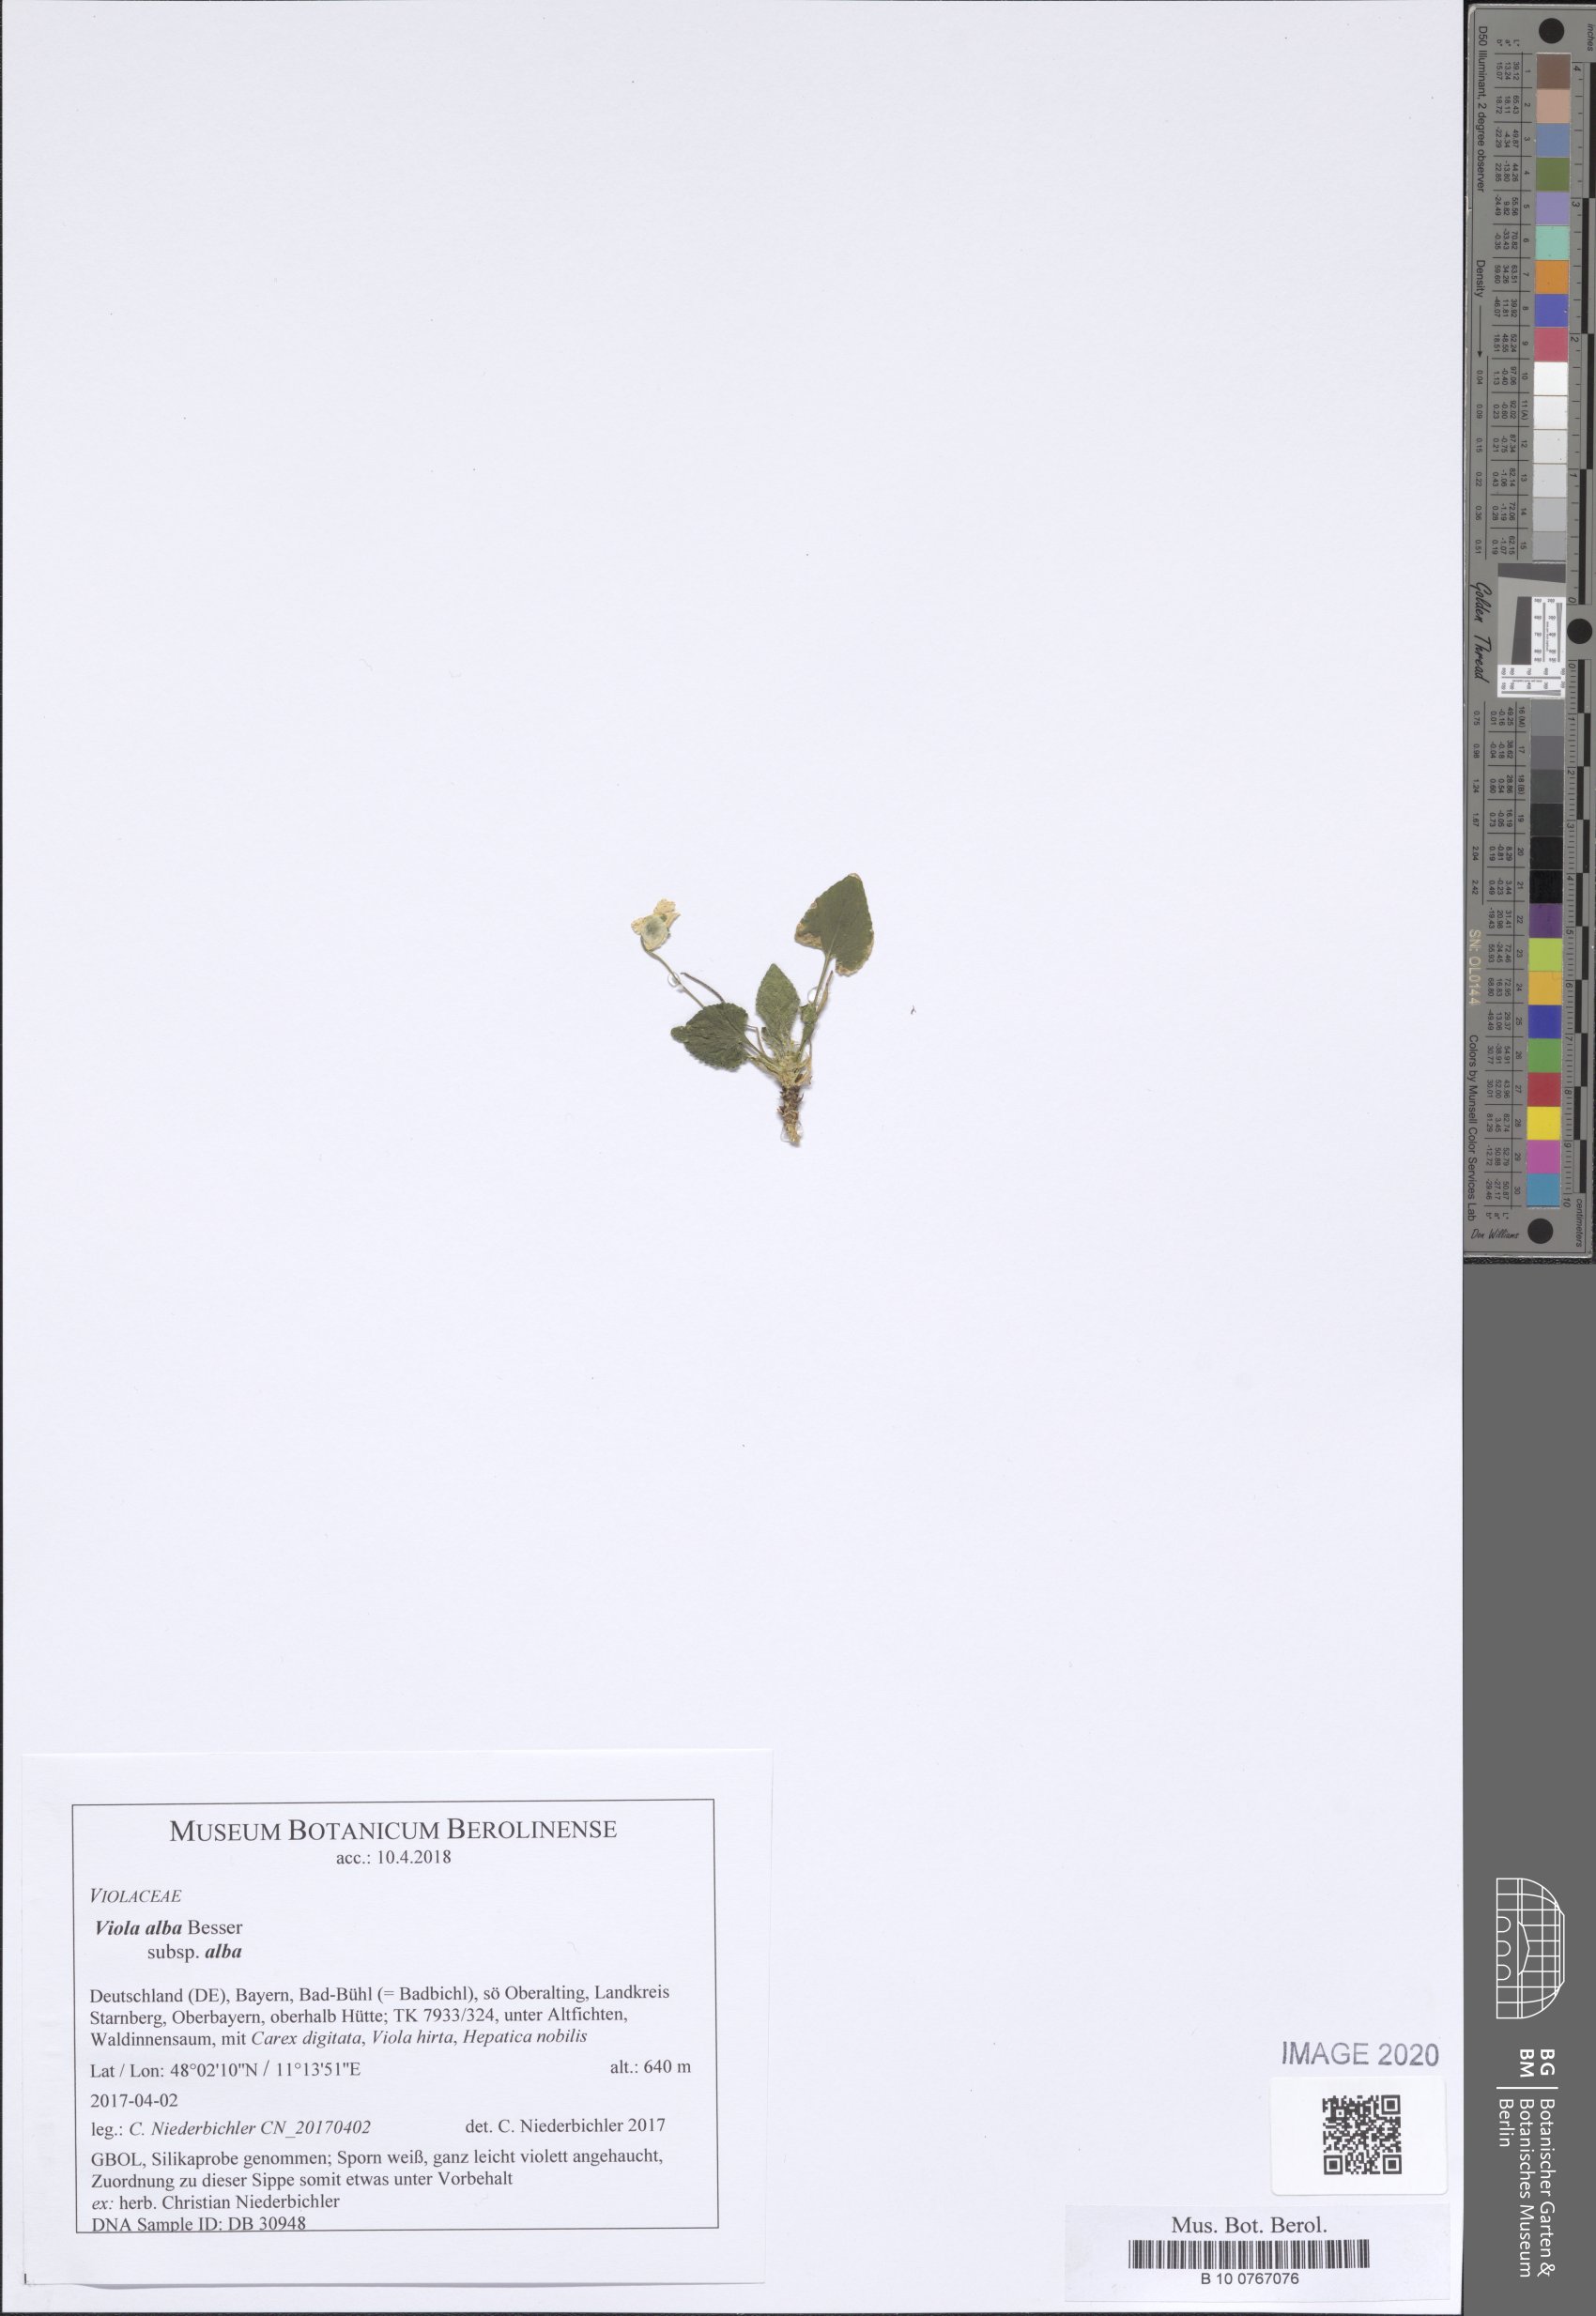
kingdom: Plantae
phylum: Tracheophyta
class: Magnoliopsida
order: Malpighiales
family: Violaceae
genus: Viola
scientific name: Viola alba
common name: White violet
